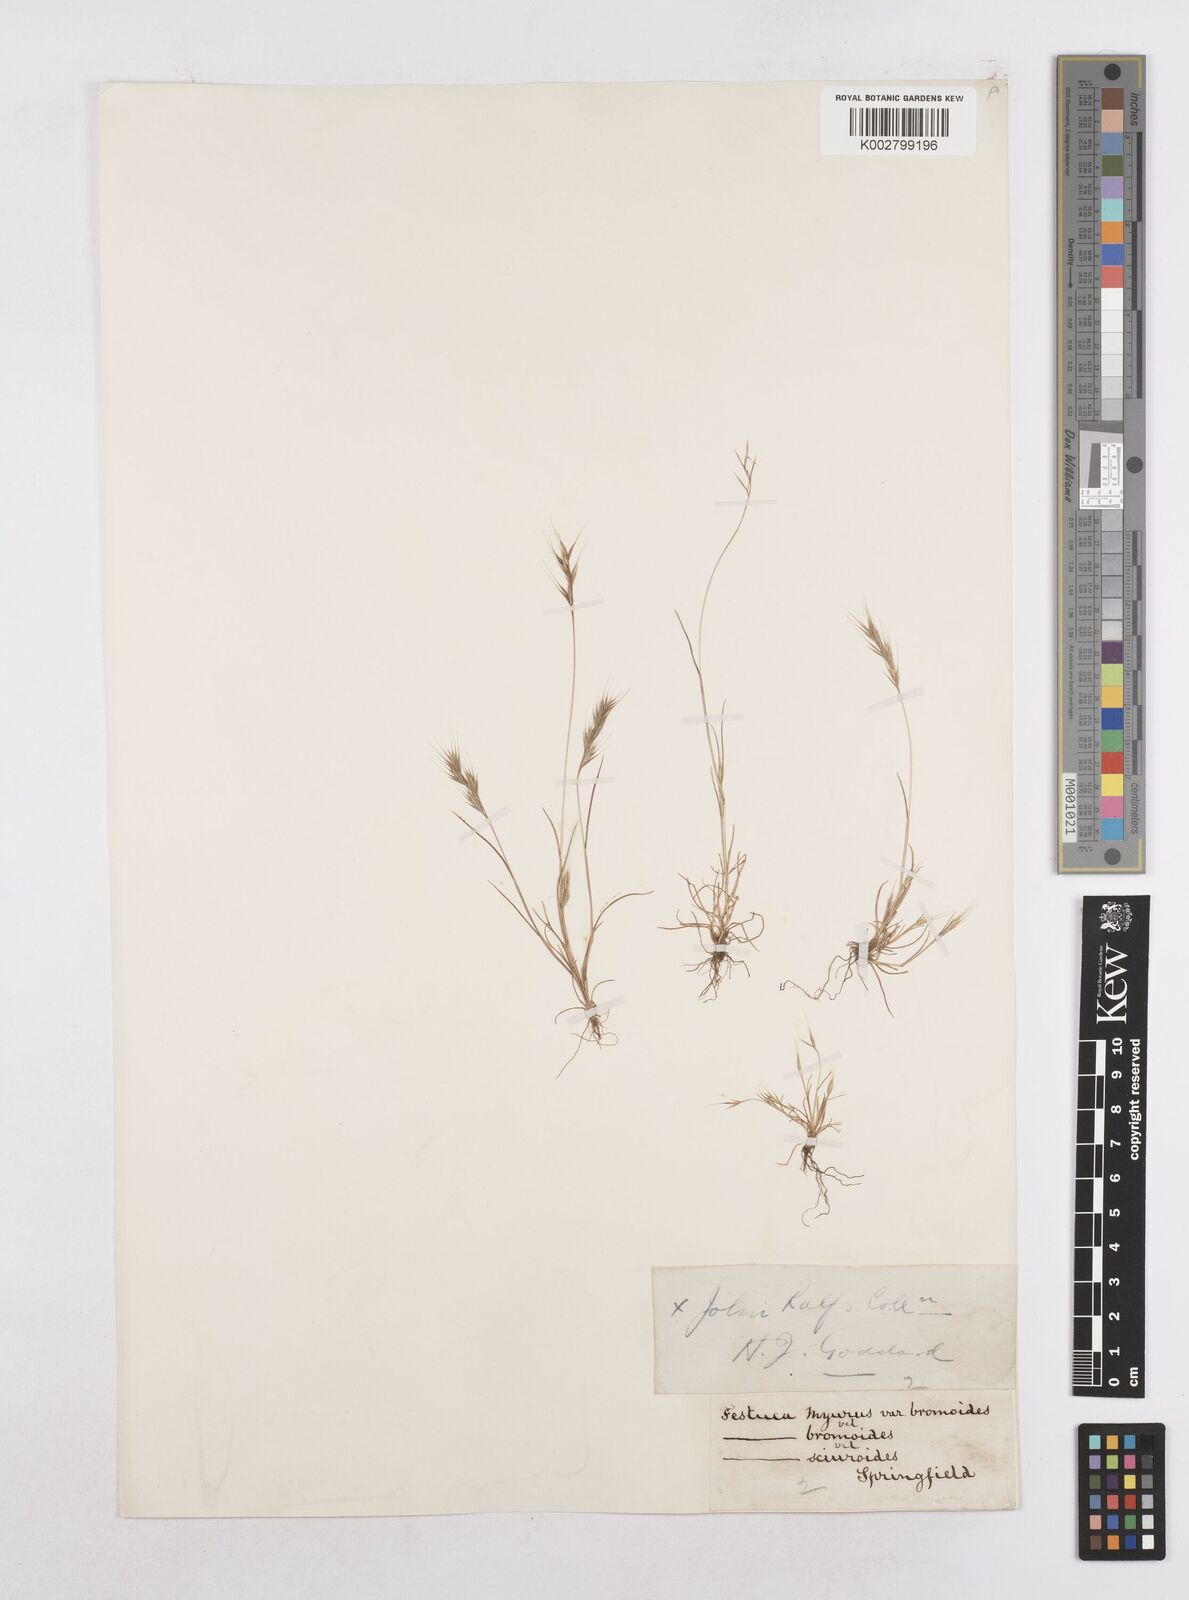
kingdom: Plantae
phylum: Tracheophyta
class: Liliopsida
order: Poales
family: Poaceae
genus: Festuca
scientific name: Festuca bromoides
